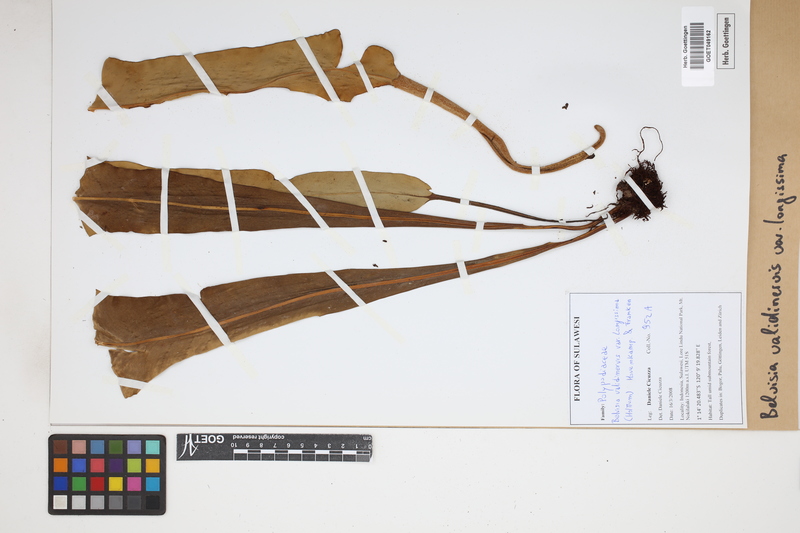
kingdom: Plantae
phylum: Tracheophyta
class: Polypodiopsida
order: Polypodiales
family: Polypodiaceae
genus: Lepisorus
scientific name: Lepisorus validinervis
